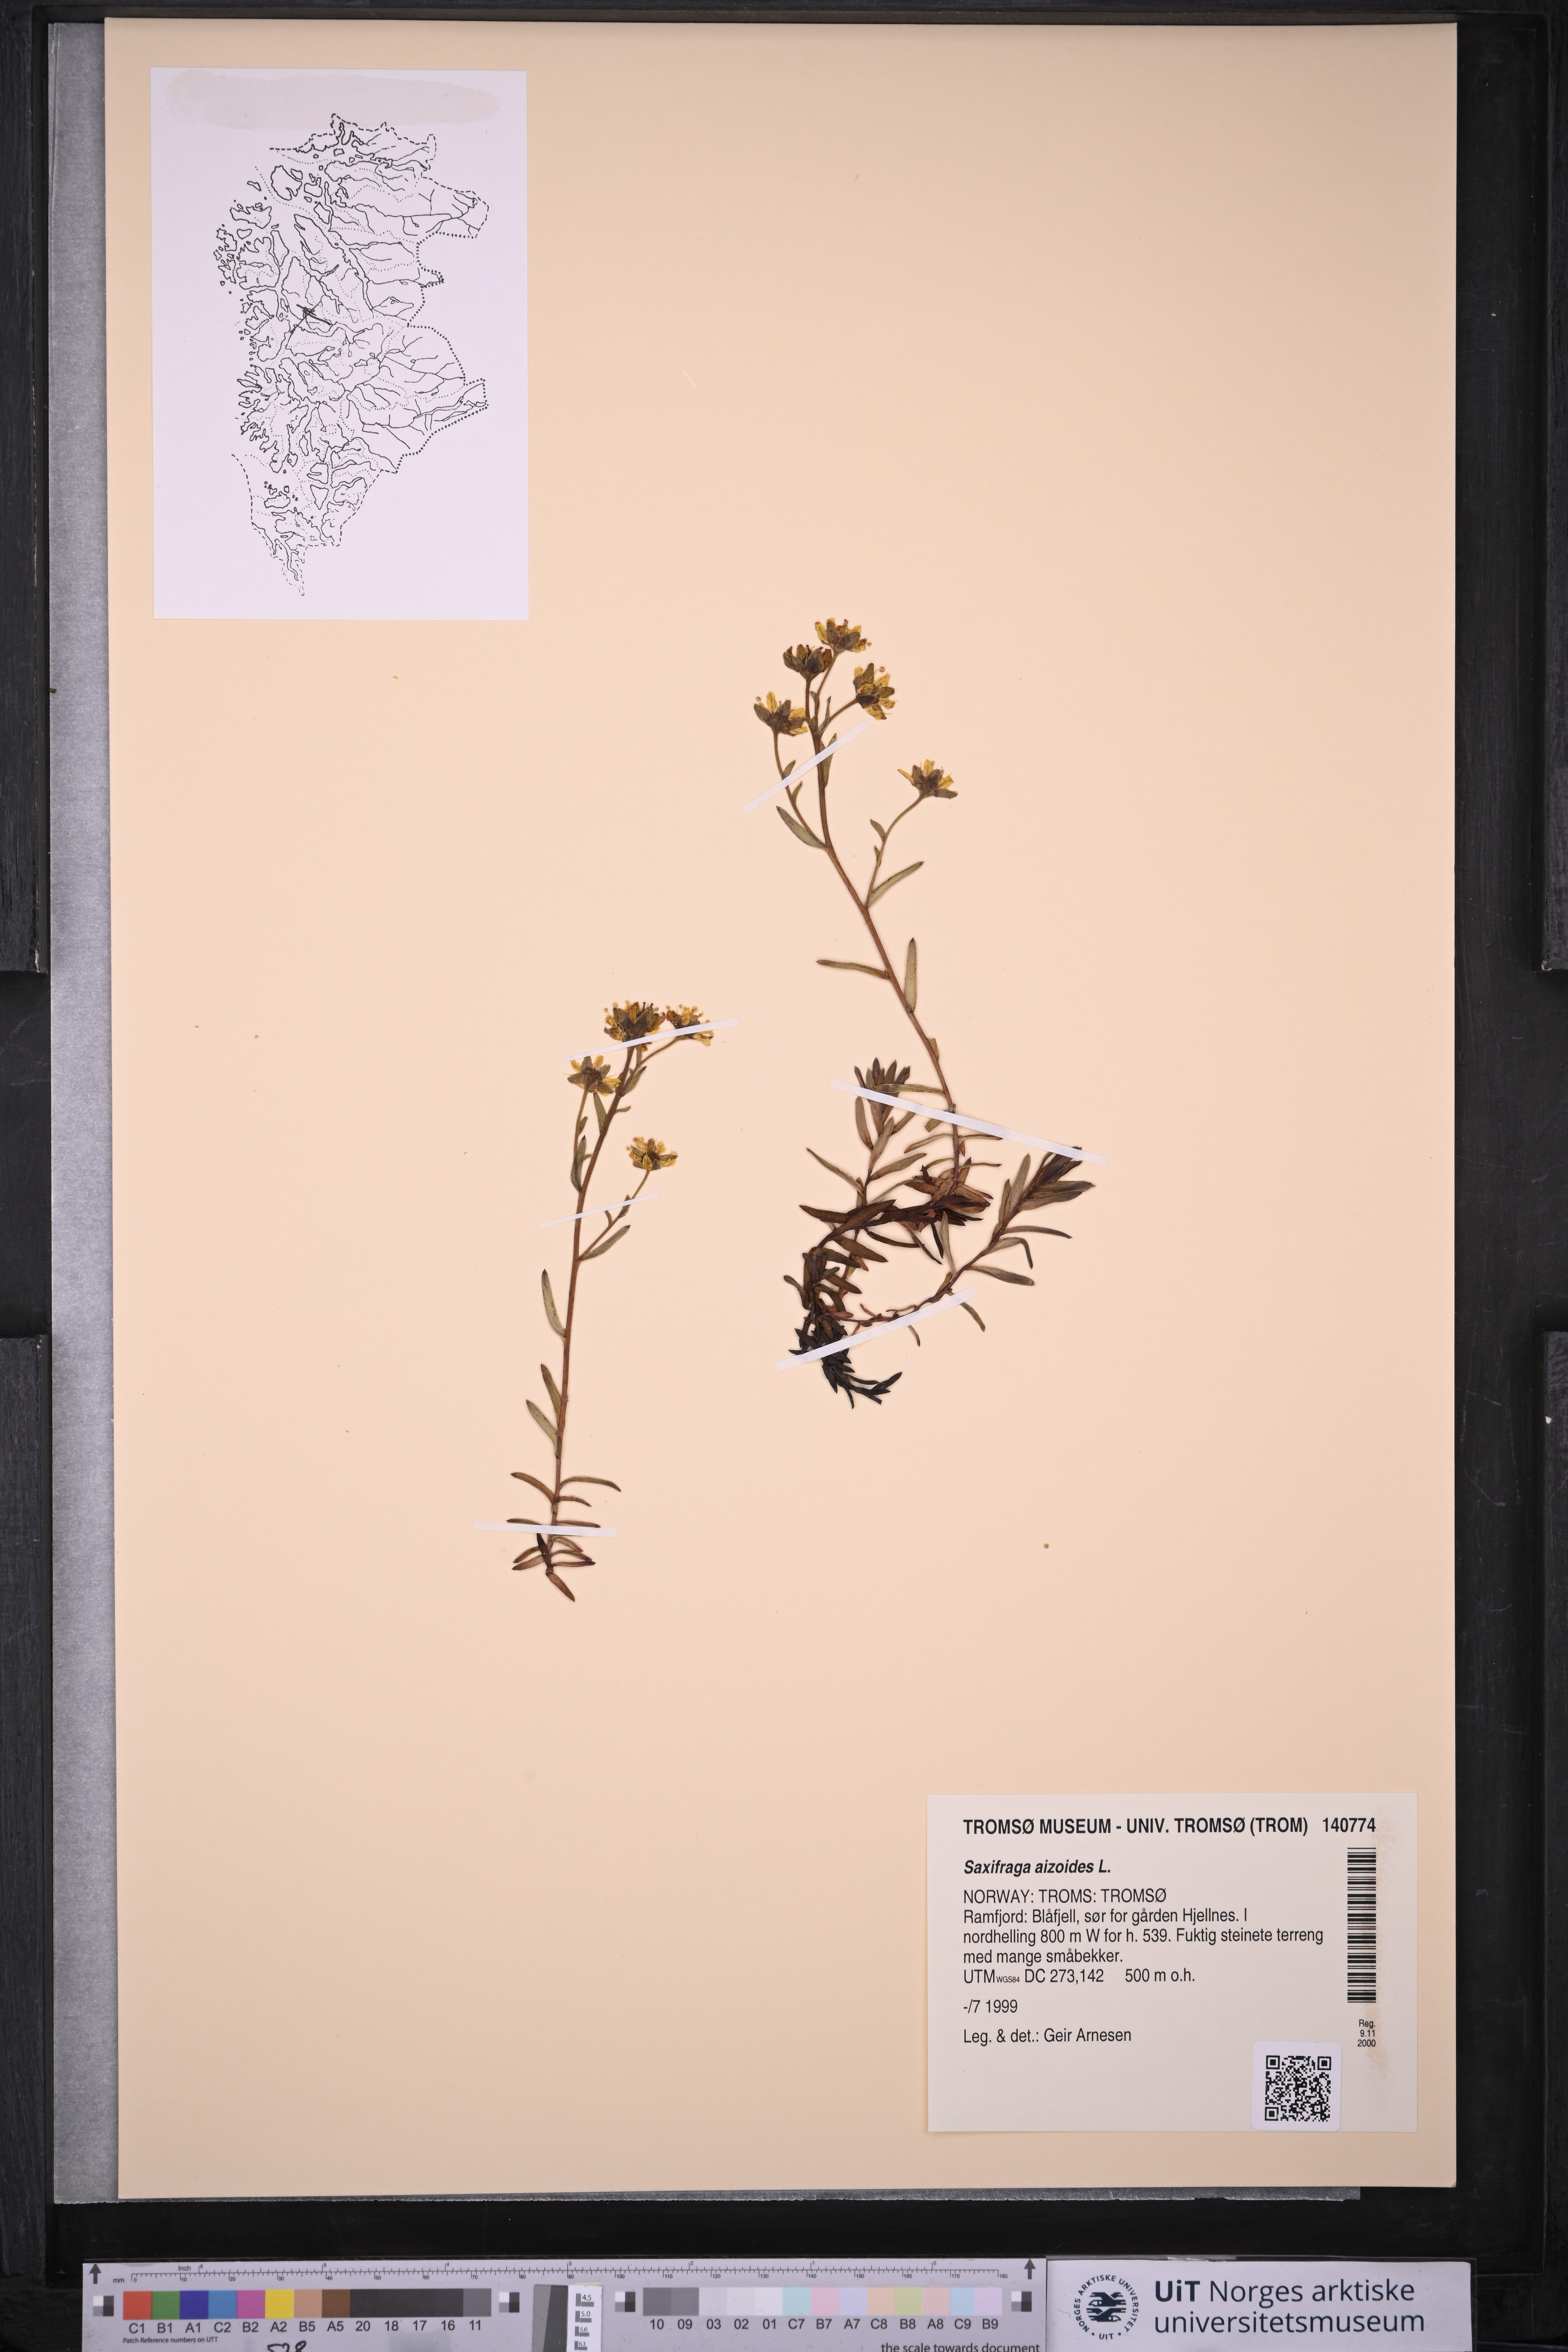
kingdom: Plantae
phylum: Tracheophyta
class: Magnoliopsida
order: Saxifragales
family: Saxifragaceae
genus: Saxifraga
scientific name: Saxifraga aizoides
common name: Yellow mountain saxifrage
